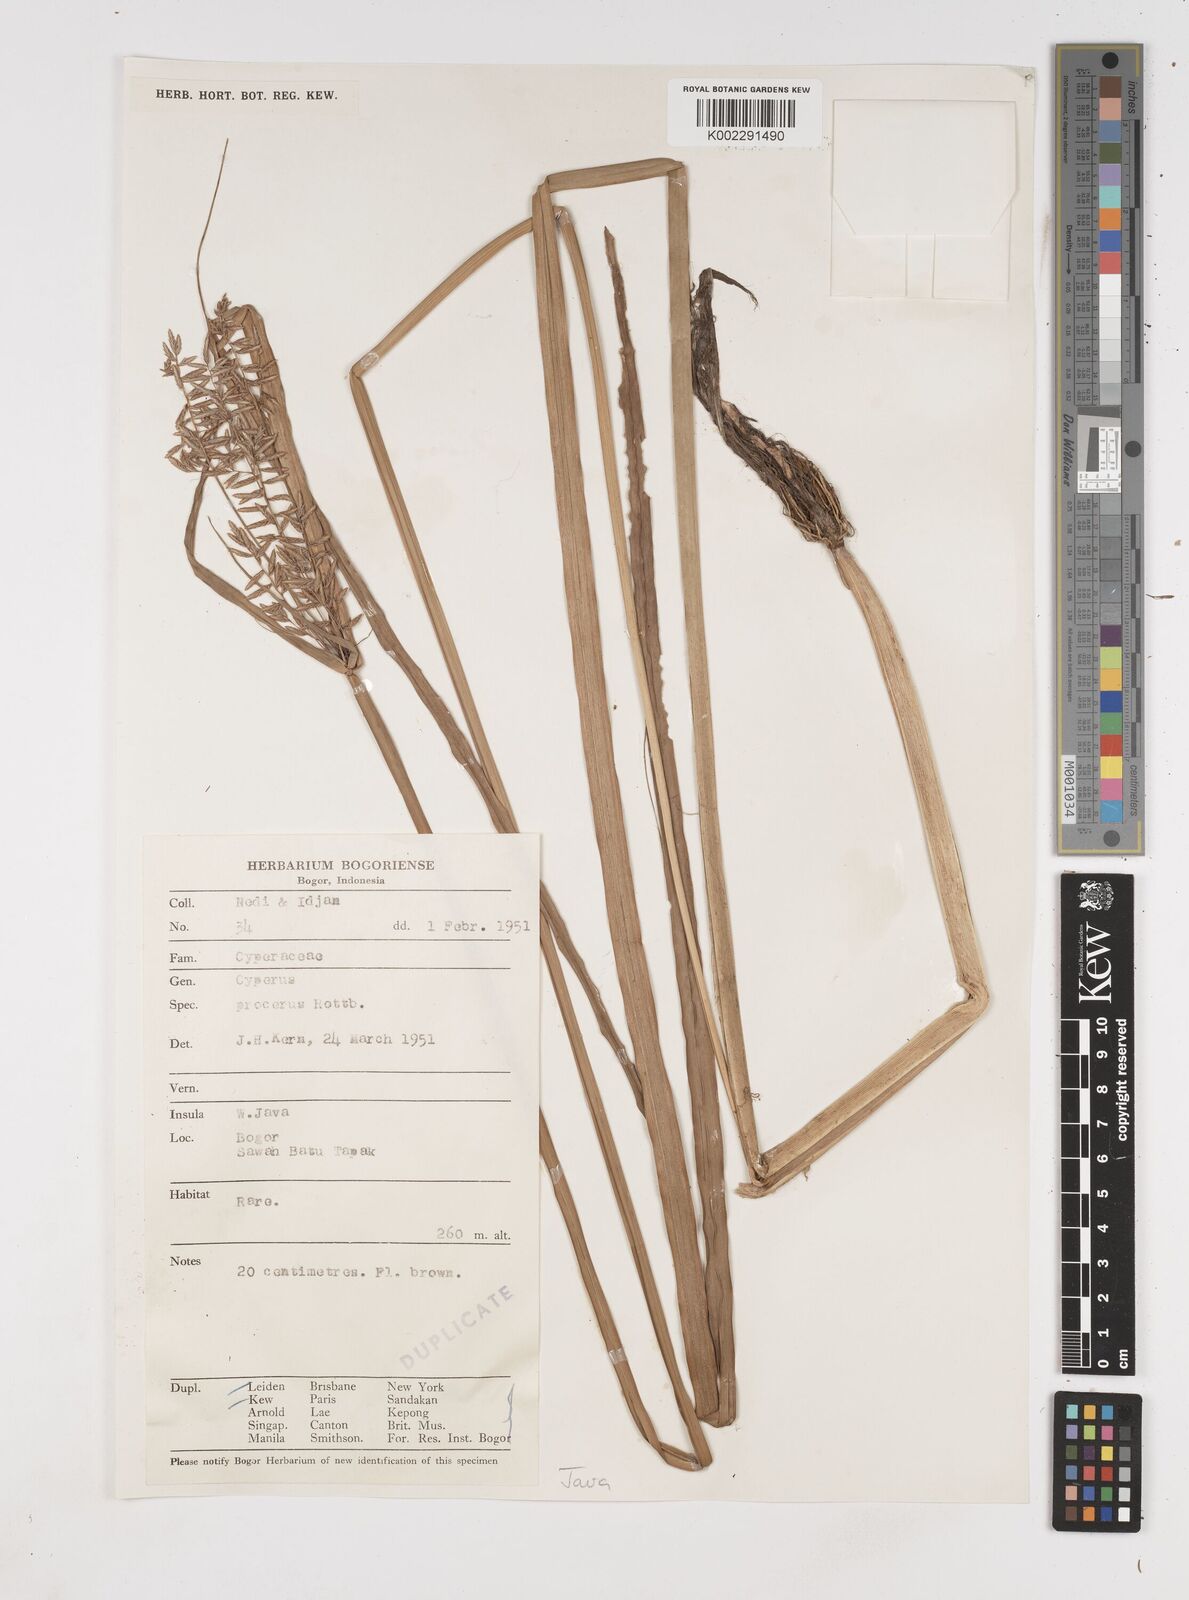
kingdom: Plantae
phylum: Tracheophyta
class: Liliopsida
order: Poales
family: Cyperaceae
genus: Cyperus
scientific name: Cyperus procerus
